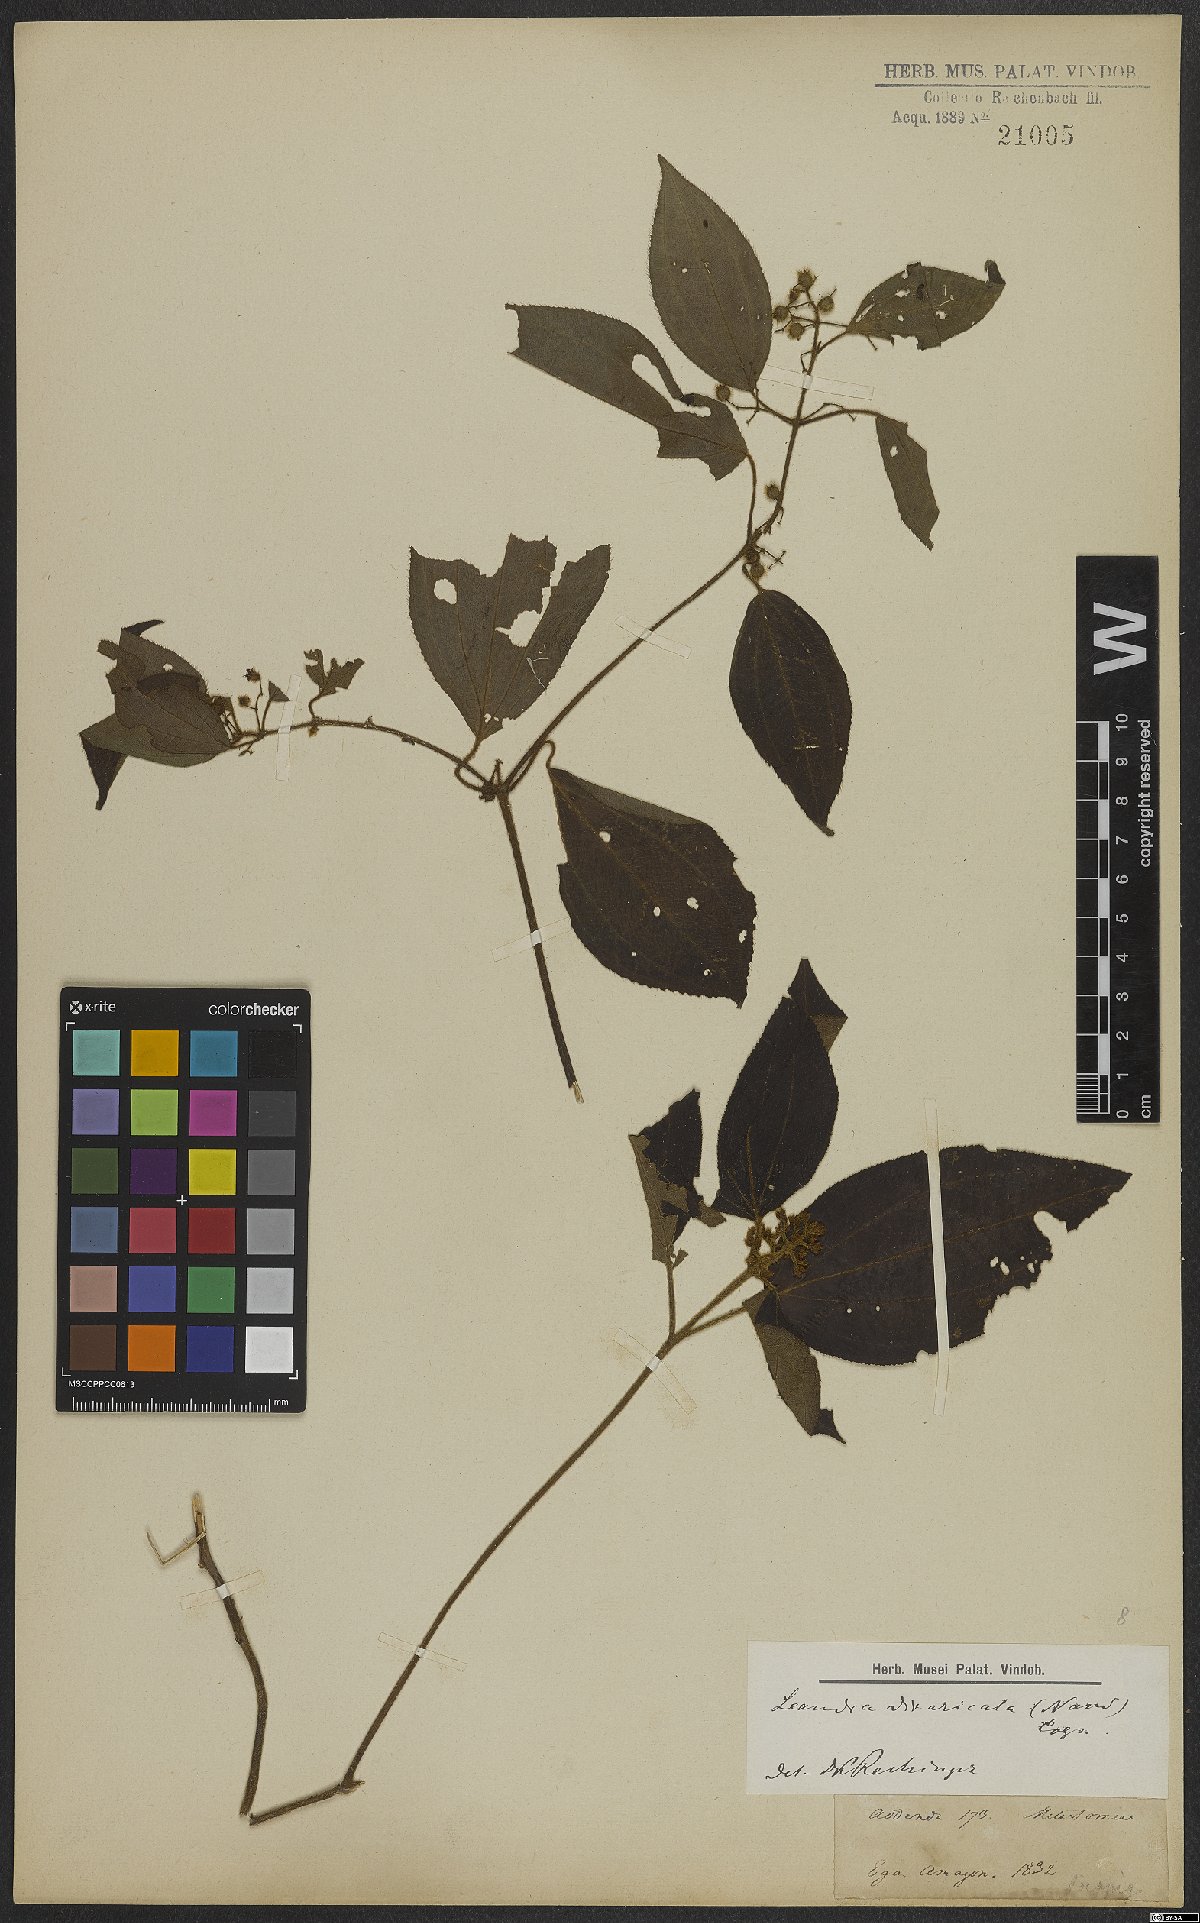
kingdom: Plantae
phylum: Tracheophyta
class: Magnoliopsida
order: Myrtales
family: Melastomataceae
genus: Miconia
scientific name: Miconia secundivaricata
